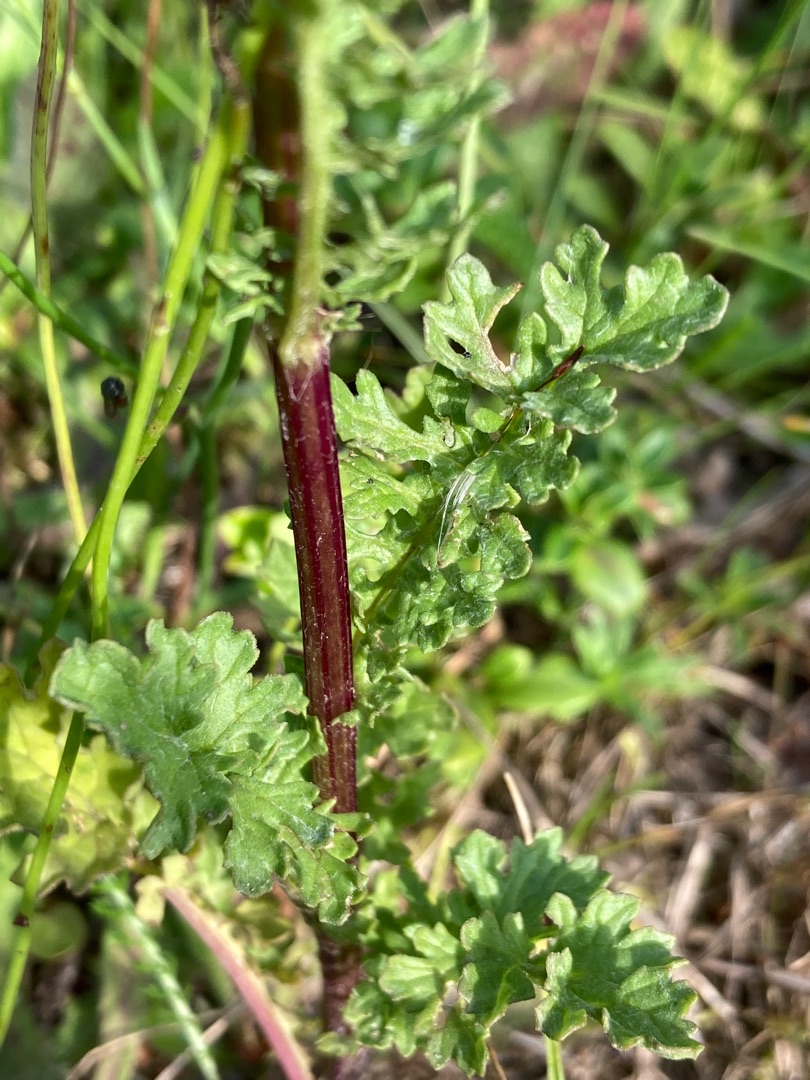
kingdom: Plantae
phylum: Tracheophyta
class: Magnoliopsida
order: Asterales
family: Asteraceae
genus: Jacobaea
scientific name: Jacobaea vulgaris
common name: Eng-brandbæger
